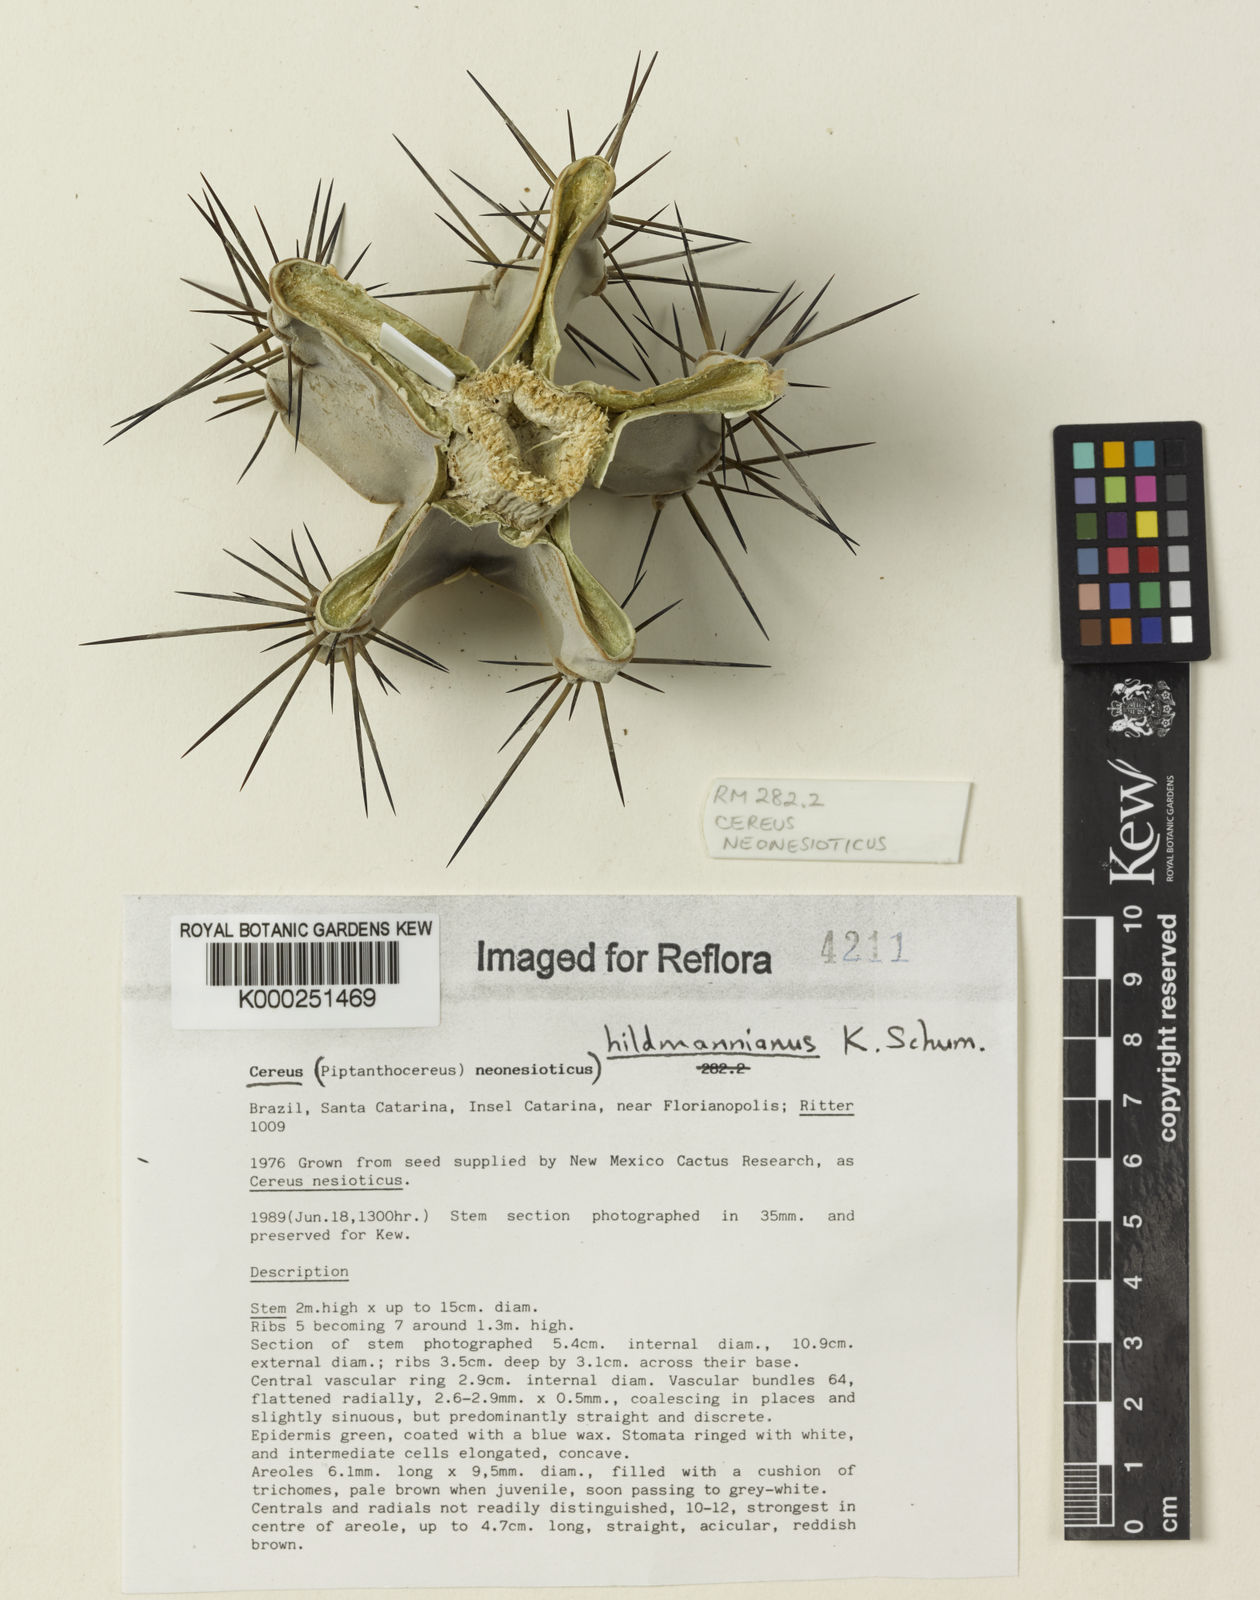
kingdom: Plantae
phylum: Tracheophyta
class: Magnoliopsida
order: Caryophyllales
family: Cactaceae
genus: Cereus
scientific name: Cereus hildmannianus
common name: Hedge cactus
